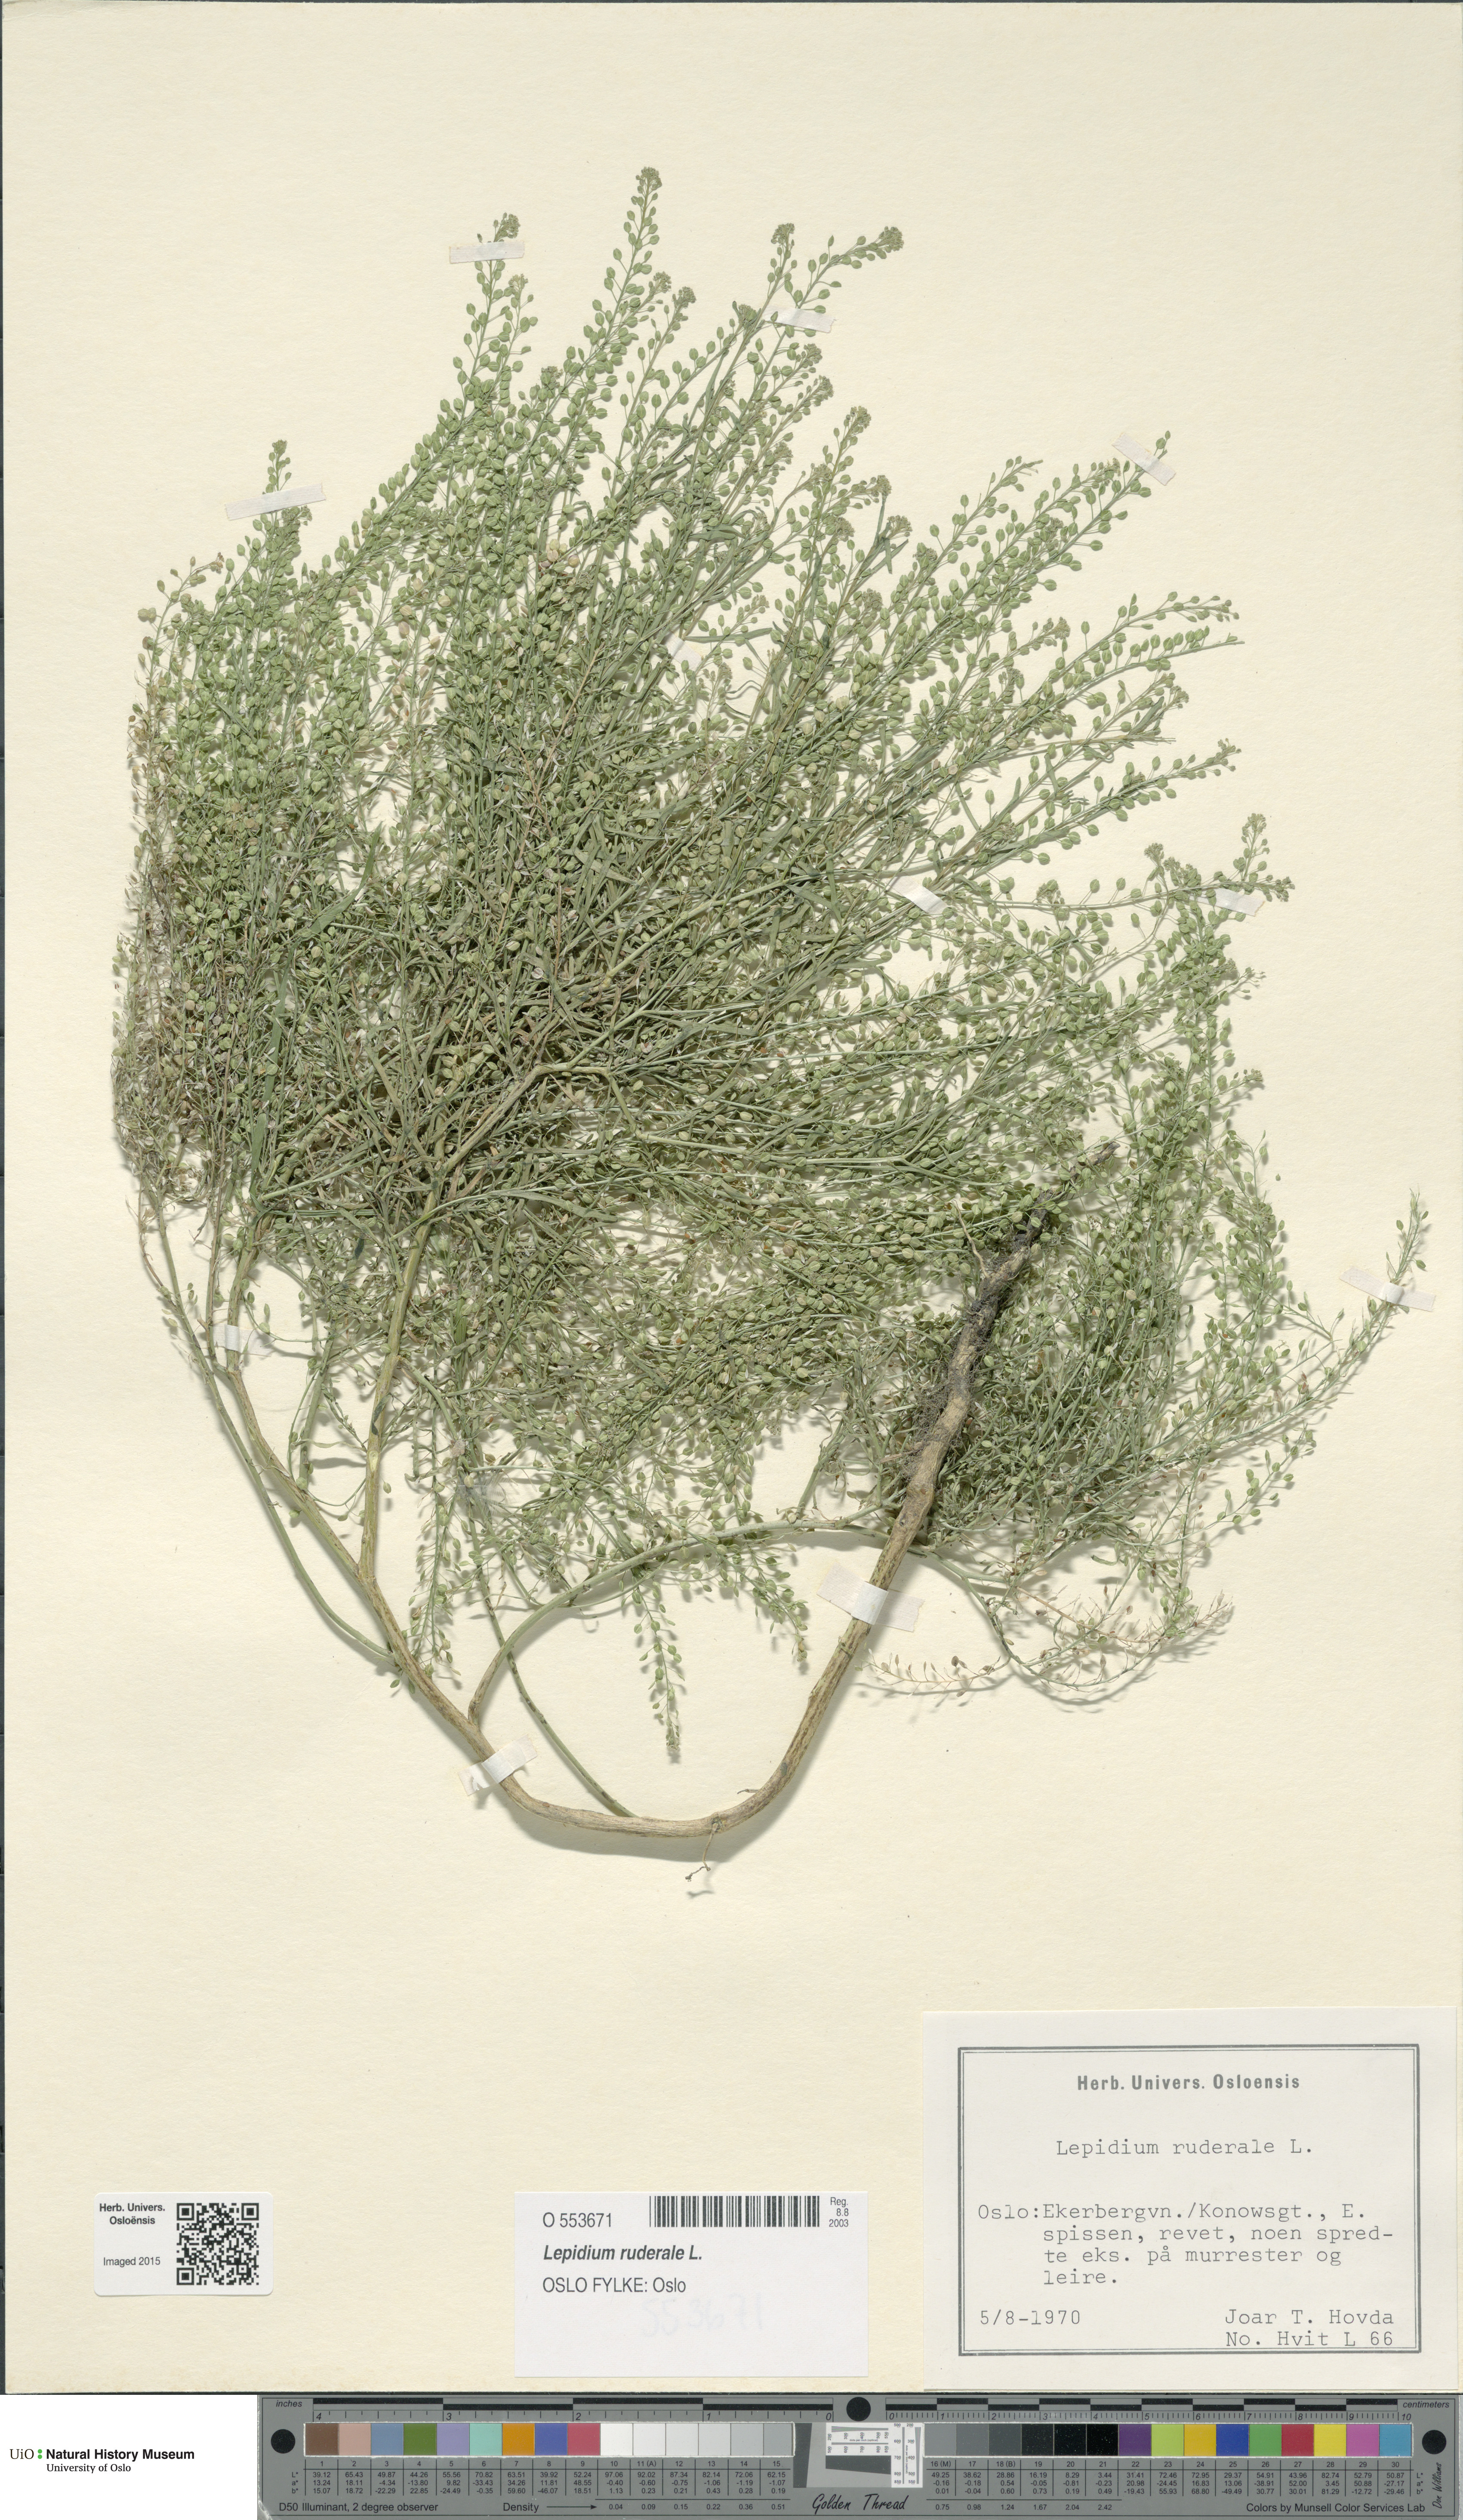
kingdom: Plantae
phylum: Tracheophyta
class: Magnoliopsida
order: Brassicales
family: Brassicaceae
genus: Lepidium
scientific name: Lepidium ruderale
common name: Narrow-leaved pepperwort
